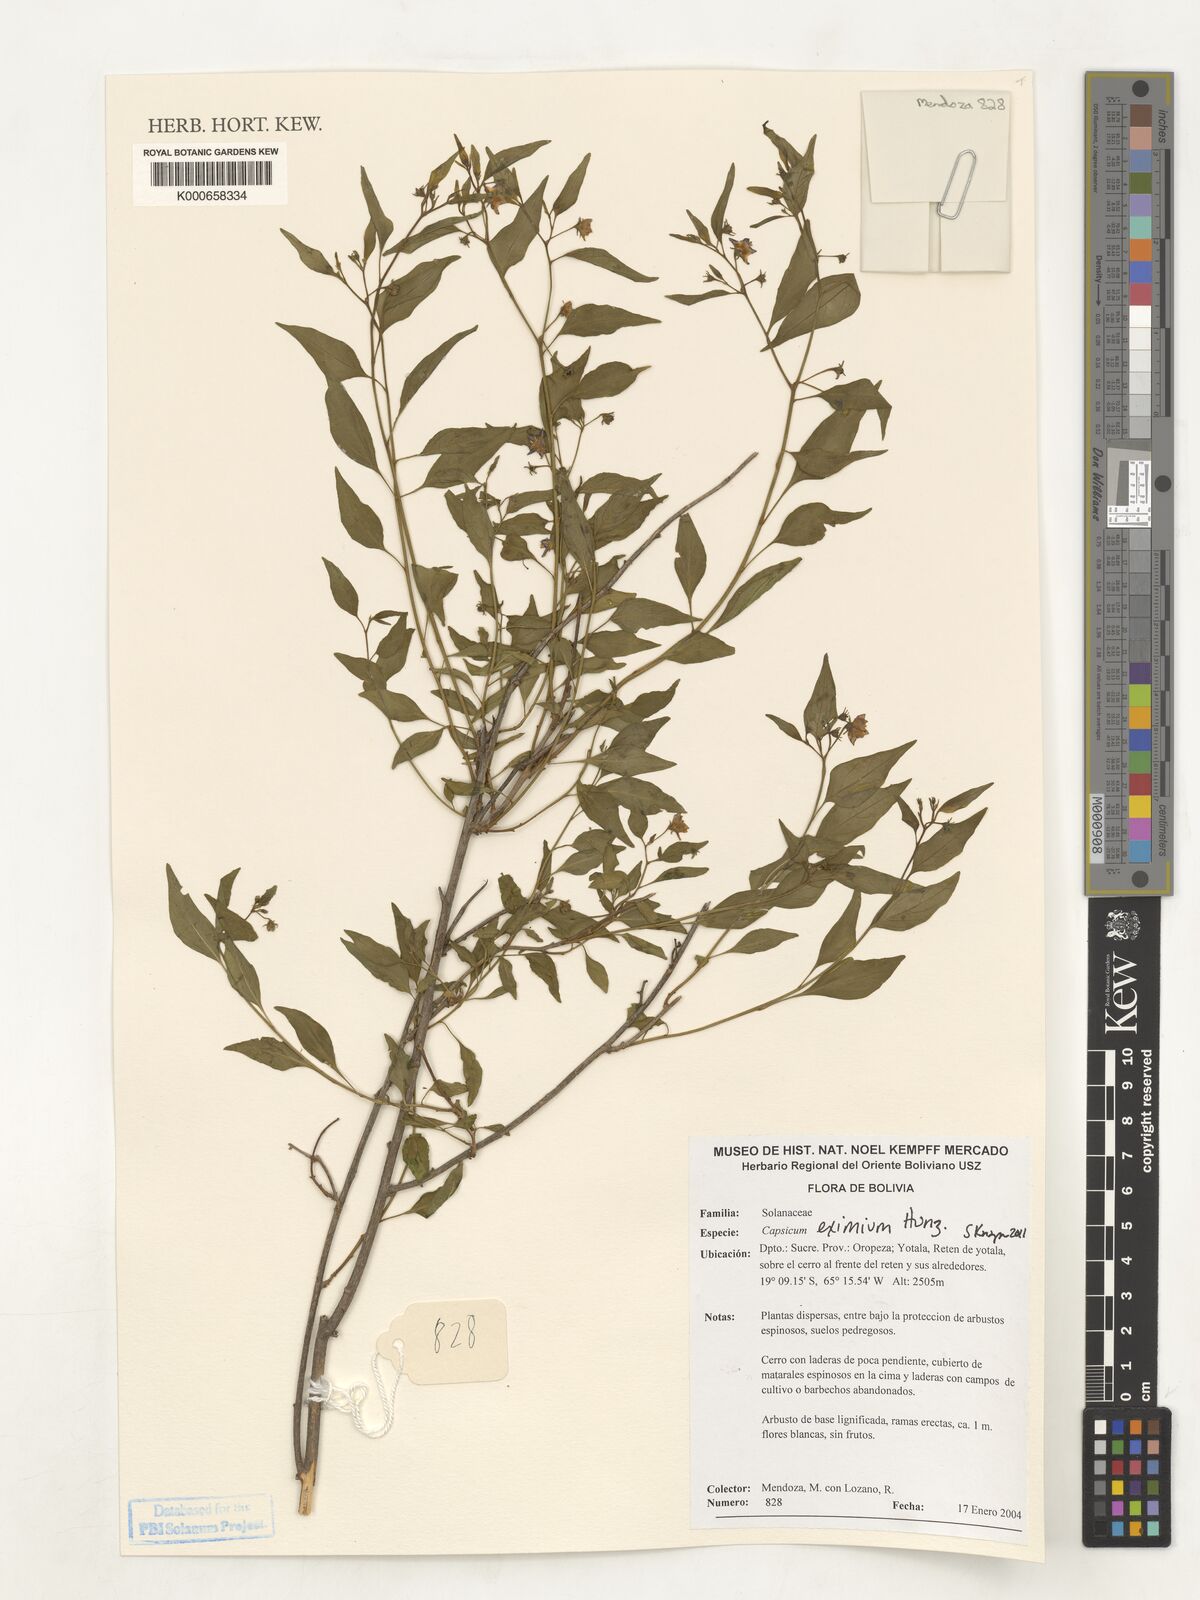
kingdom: Plantae
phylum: Tracheophyta
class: Magnoliopsida
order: Solanales
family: Solanaceae
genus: Capsicum
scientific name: Capsicum eximium
